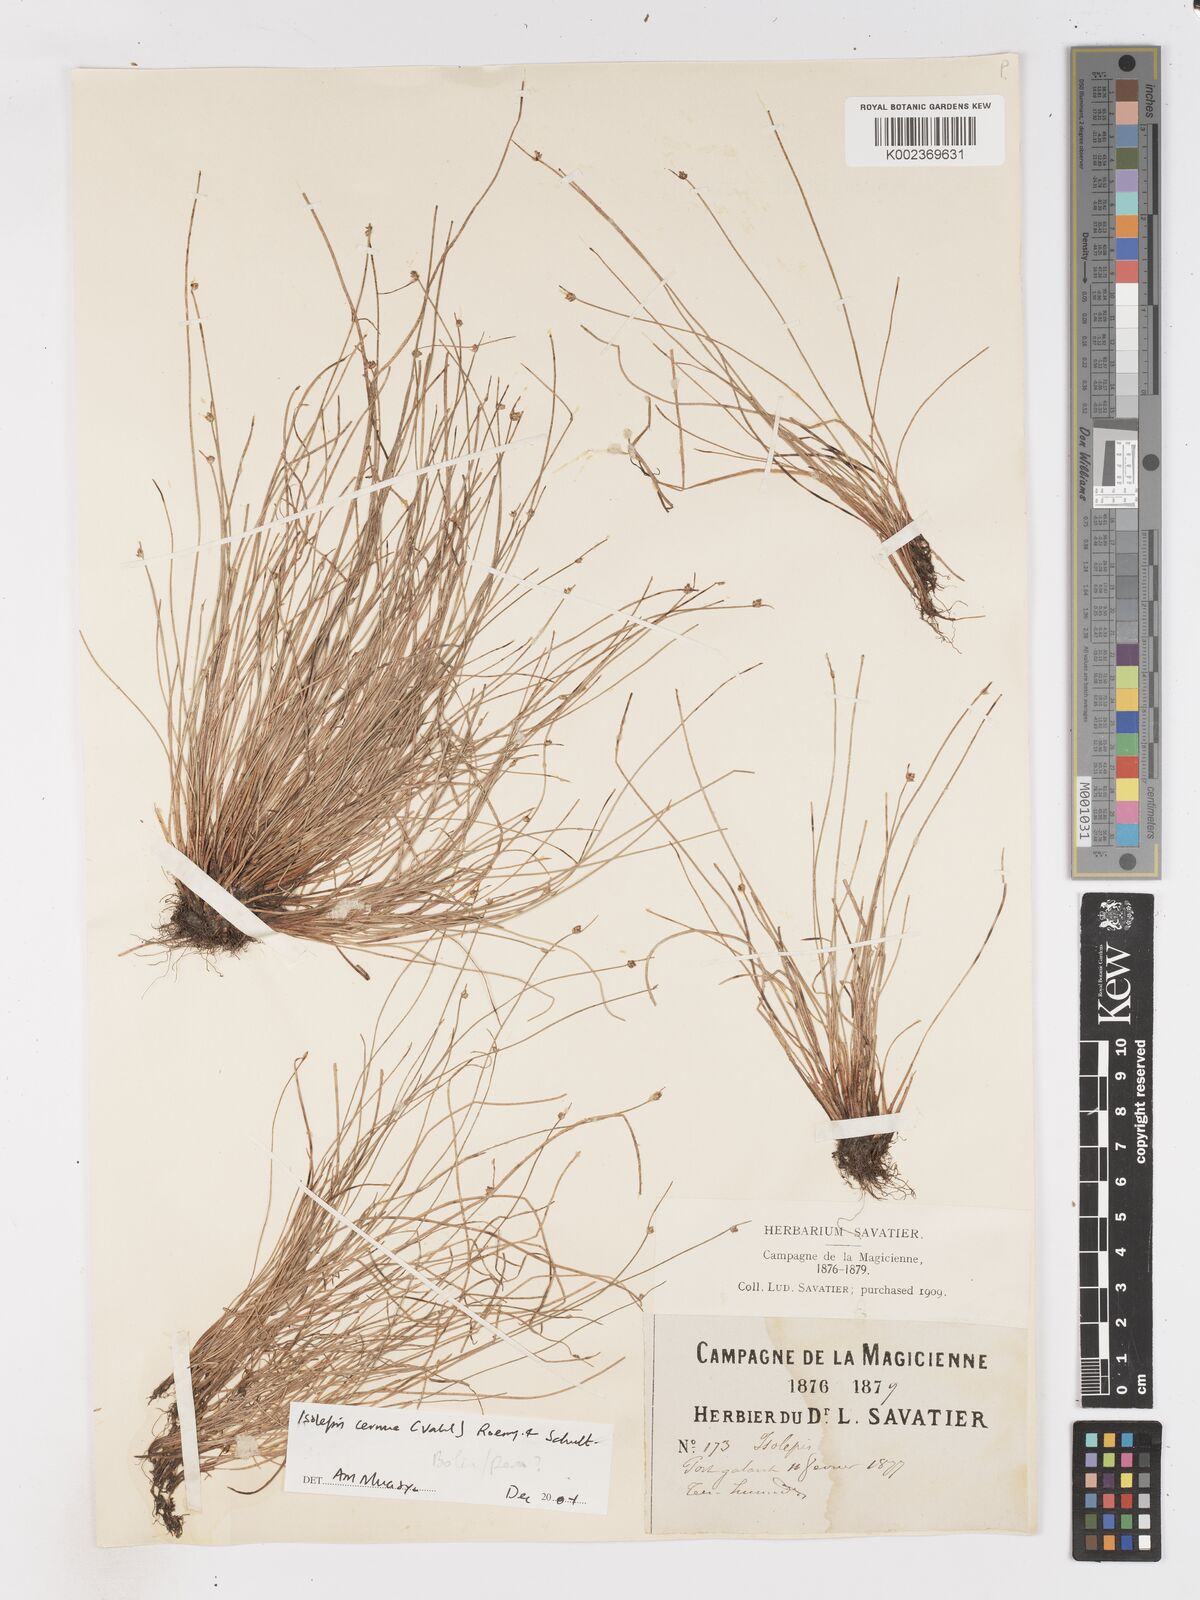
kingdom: Plantae
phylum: Tracheophyta
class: Liliopsida
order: Poales
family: Cyperaceae
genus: Isolepis
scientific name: Isolepis cernua
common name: Slender club-rush
